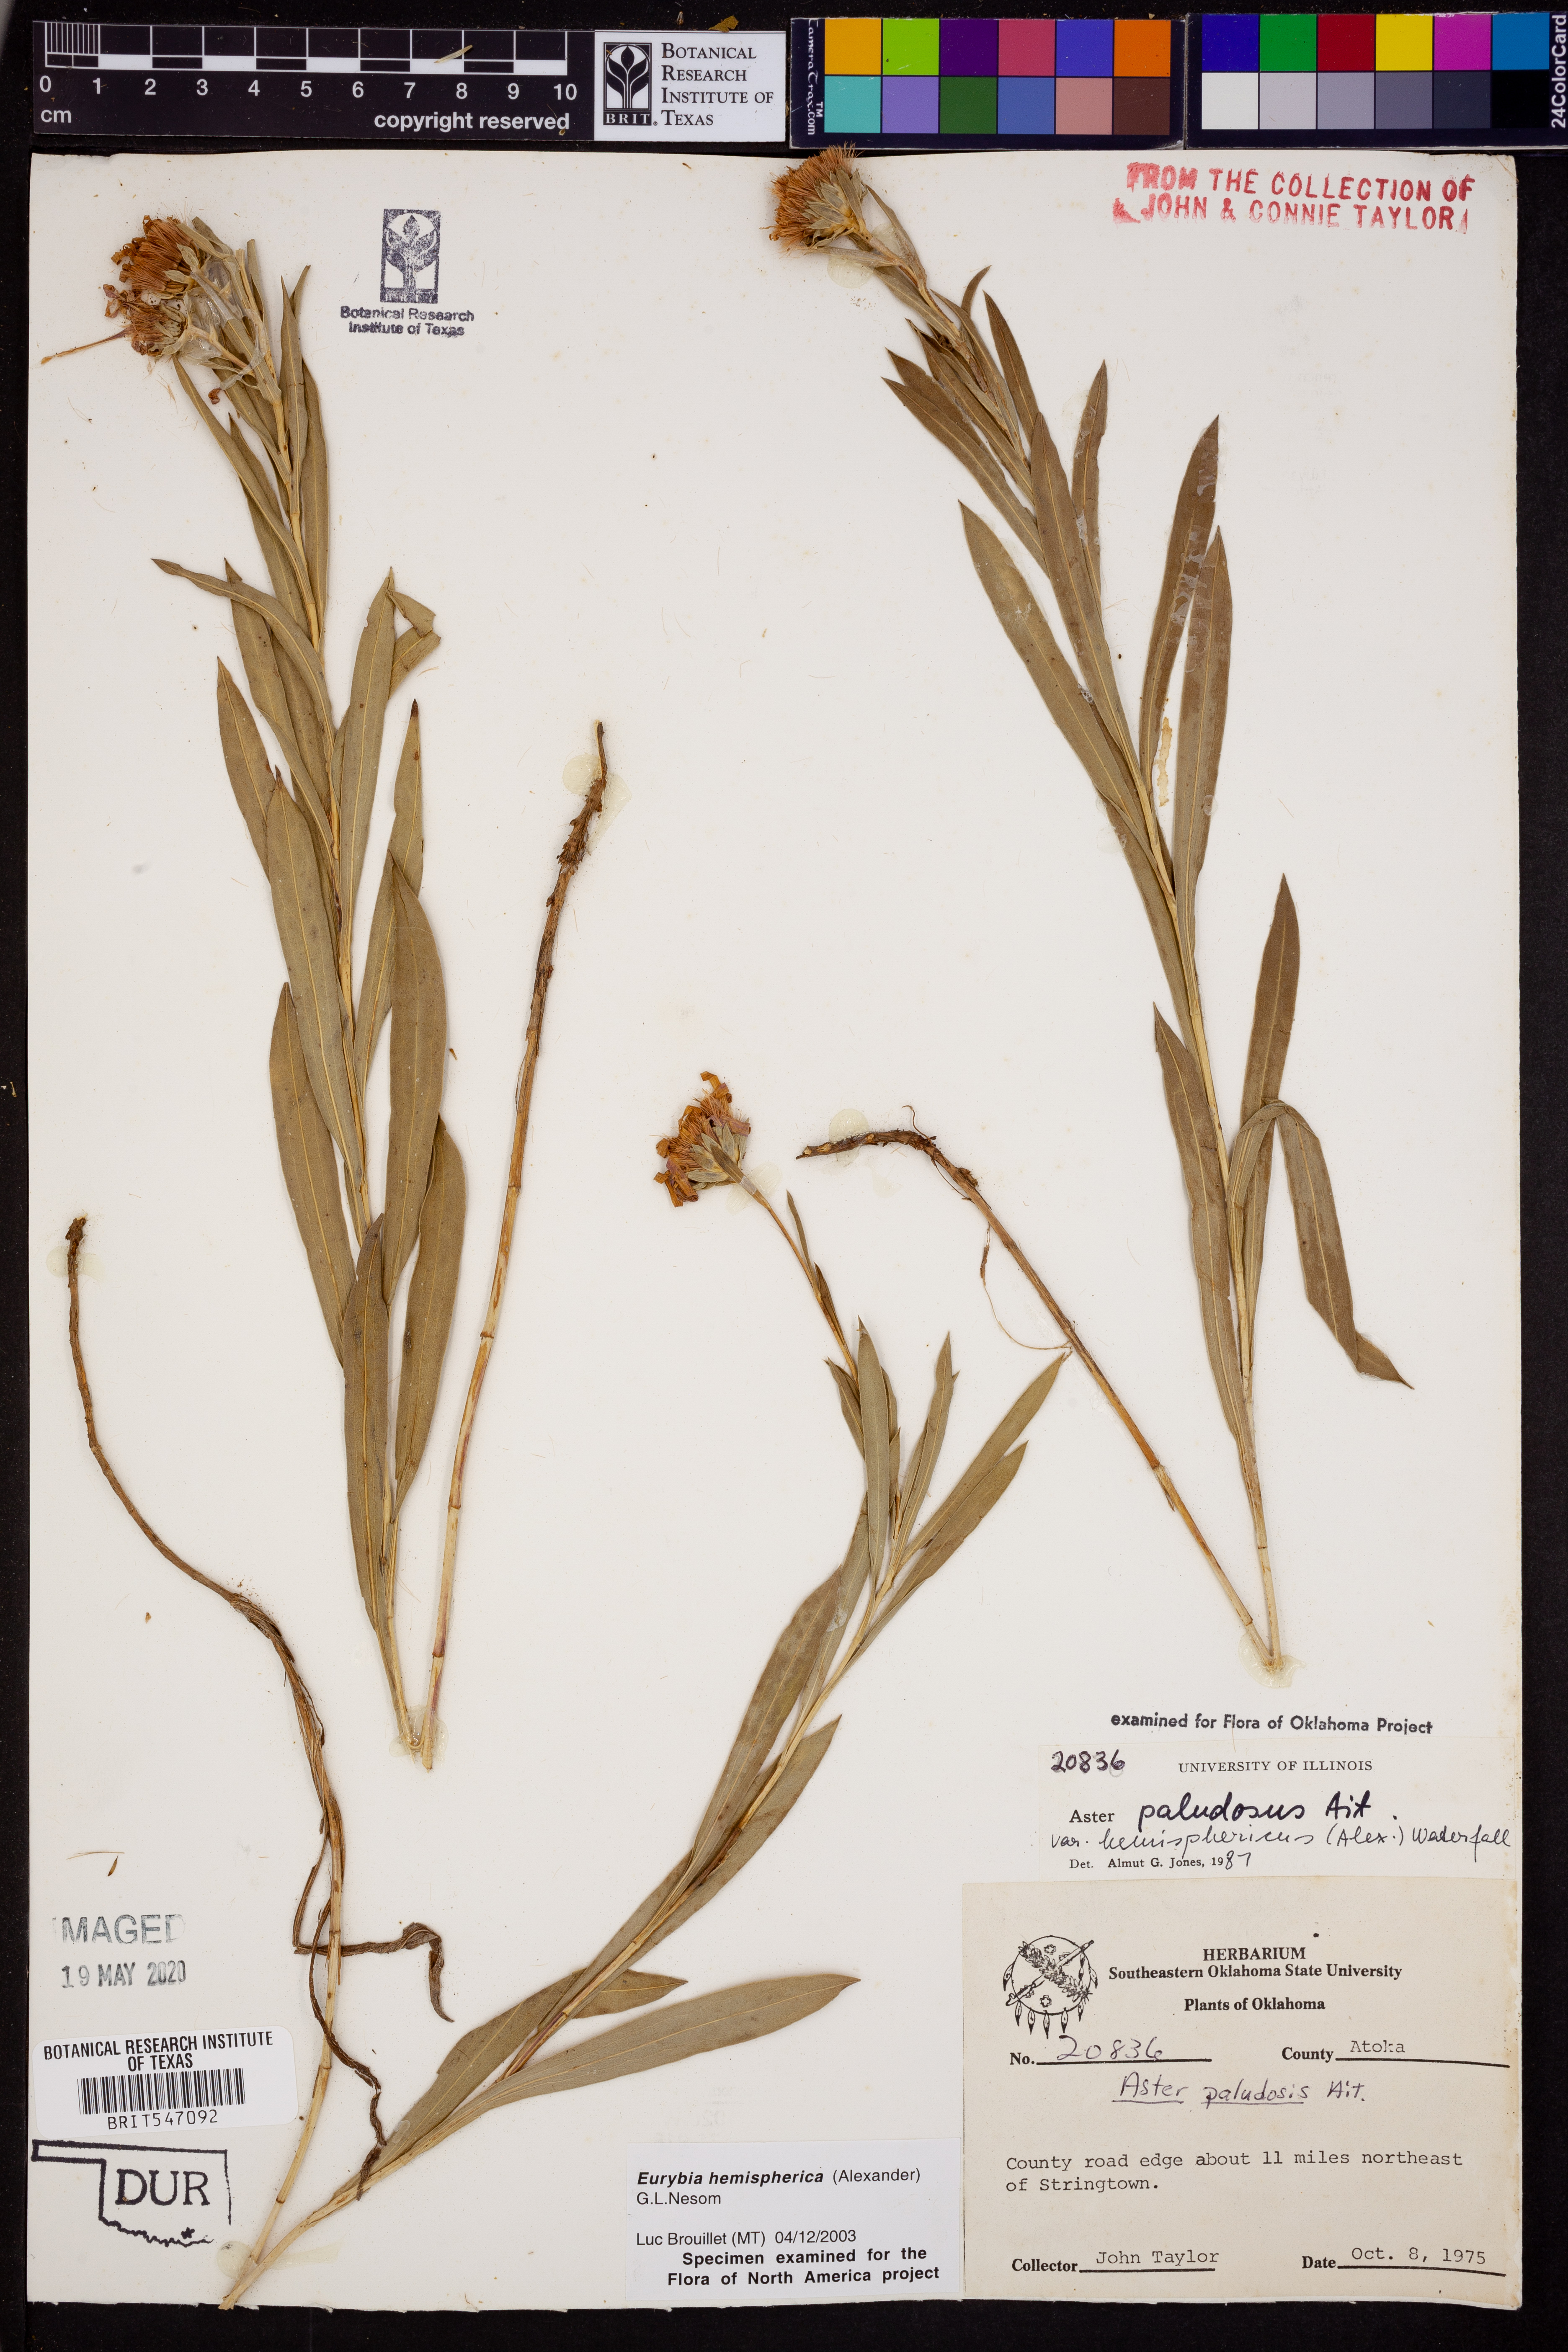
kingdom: Plantae
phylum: Tracheophyta
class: Magnoliopsida
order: Asterales
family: Asteraceae
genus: Eurybia
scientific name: Eurybia hemispherica
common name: Showy aster
